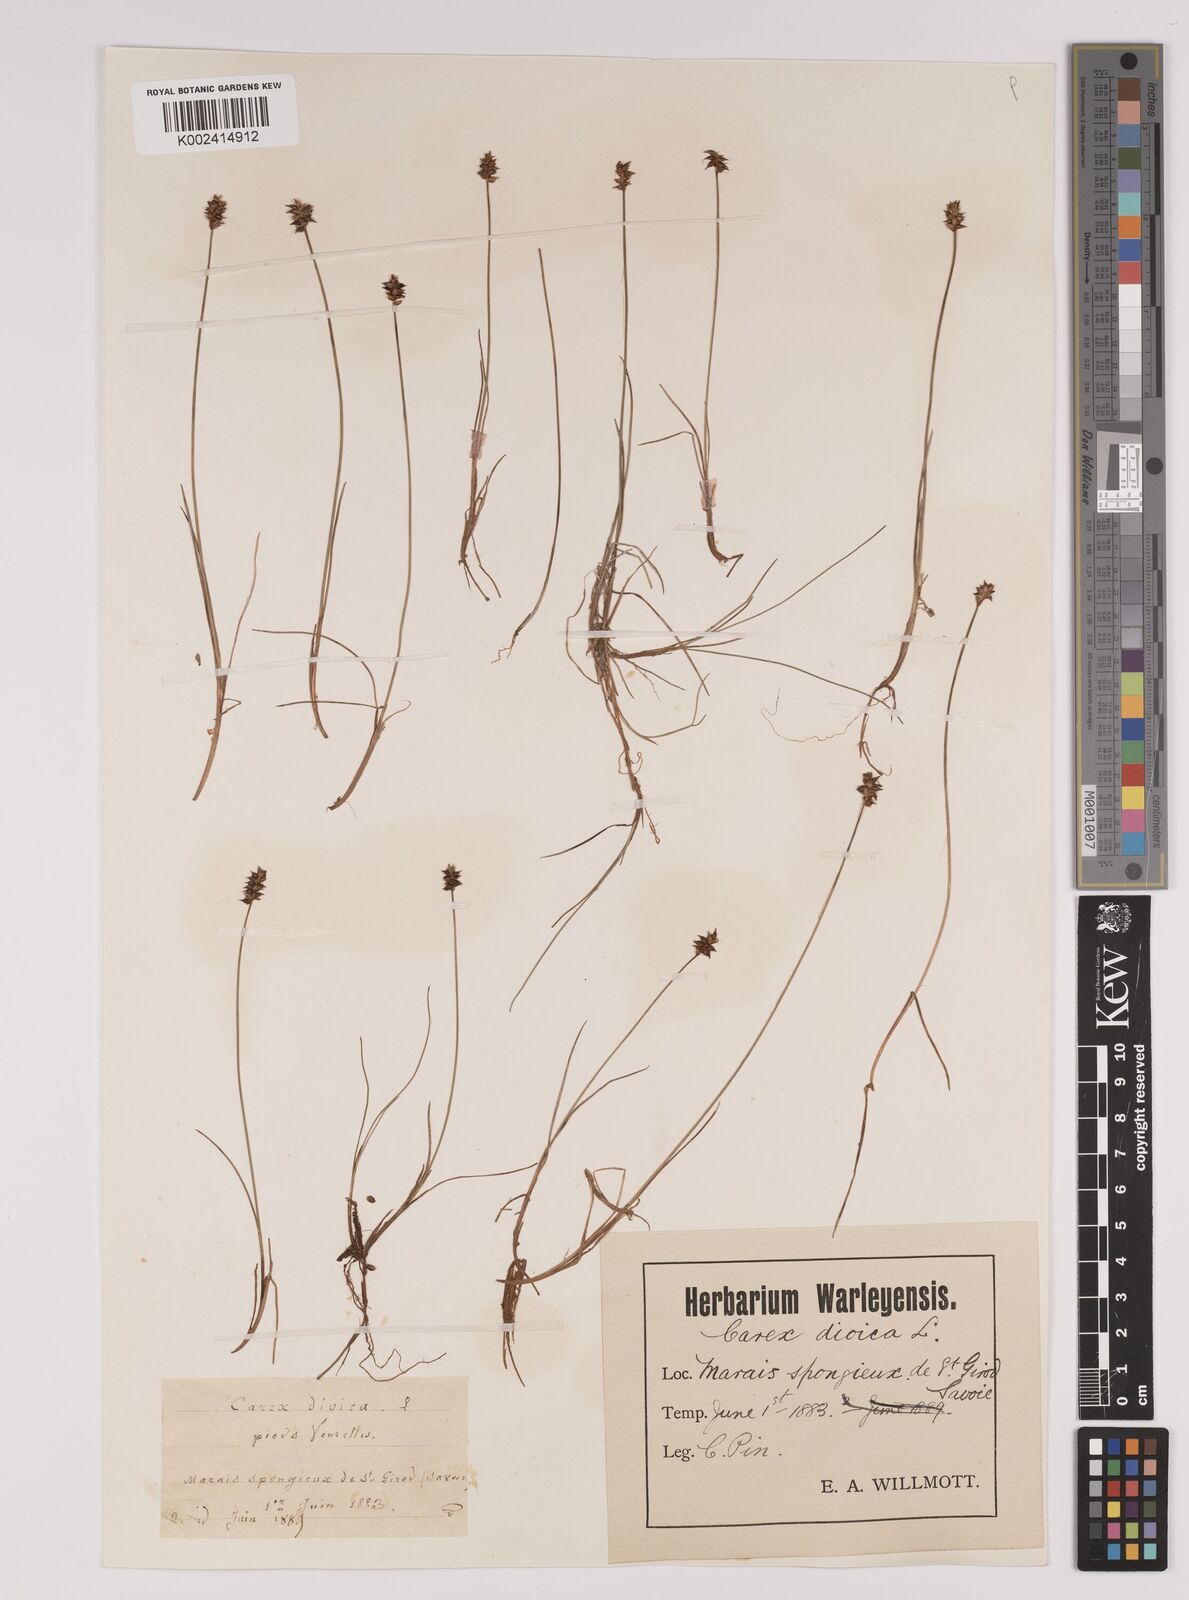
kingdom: Plantae
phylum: Tracheophyta
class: Liliopsida
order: Poales
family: Cyperaceae
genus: Carex
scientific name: Carex dioica
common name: Dioecious sedge
